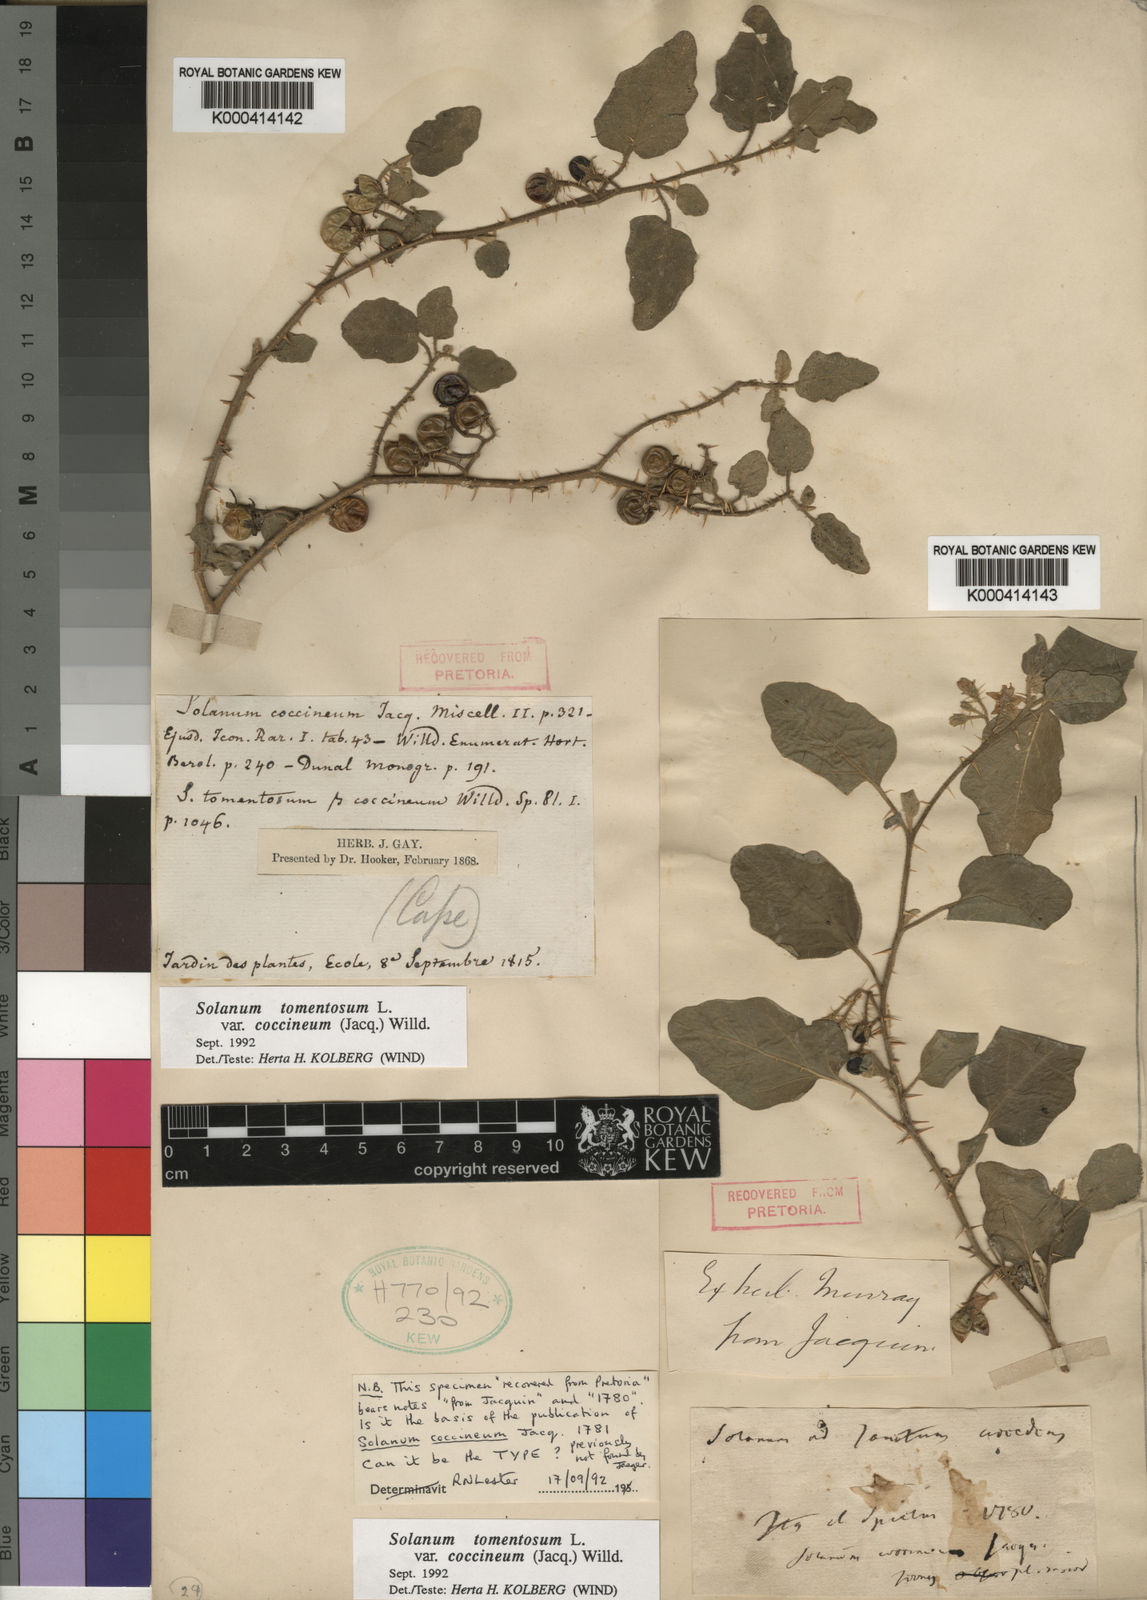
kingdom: Plantae
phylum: Tracheophyta
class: Magnoliopsida
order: Solanales
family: Solanaceae
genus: Solanum
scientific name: Solanum tomentosum
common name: Wild aubergine
